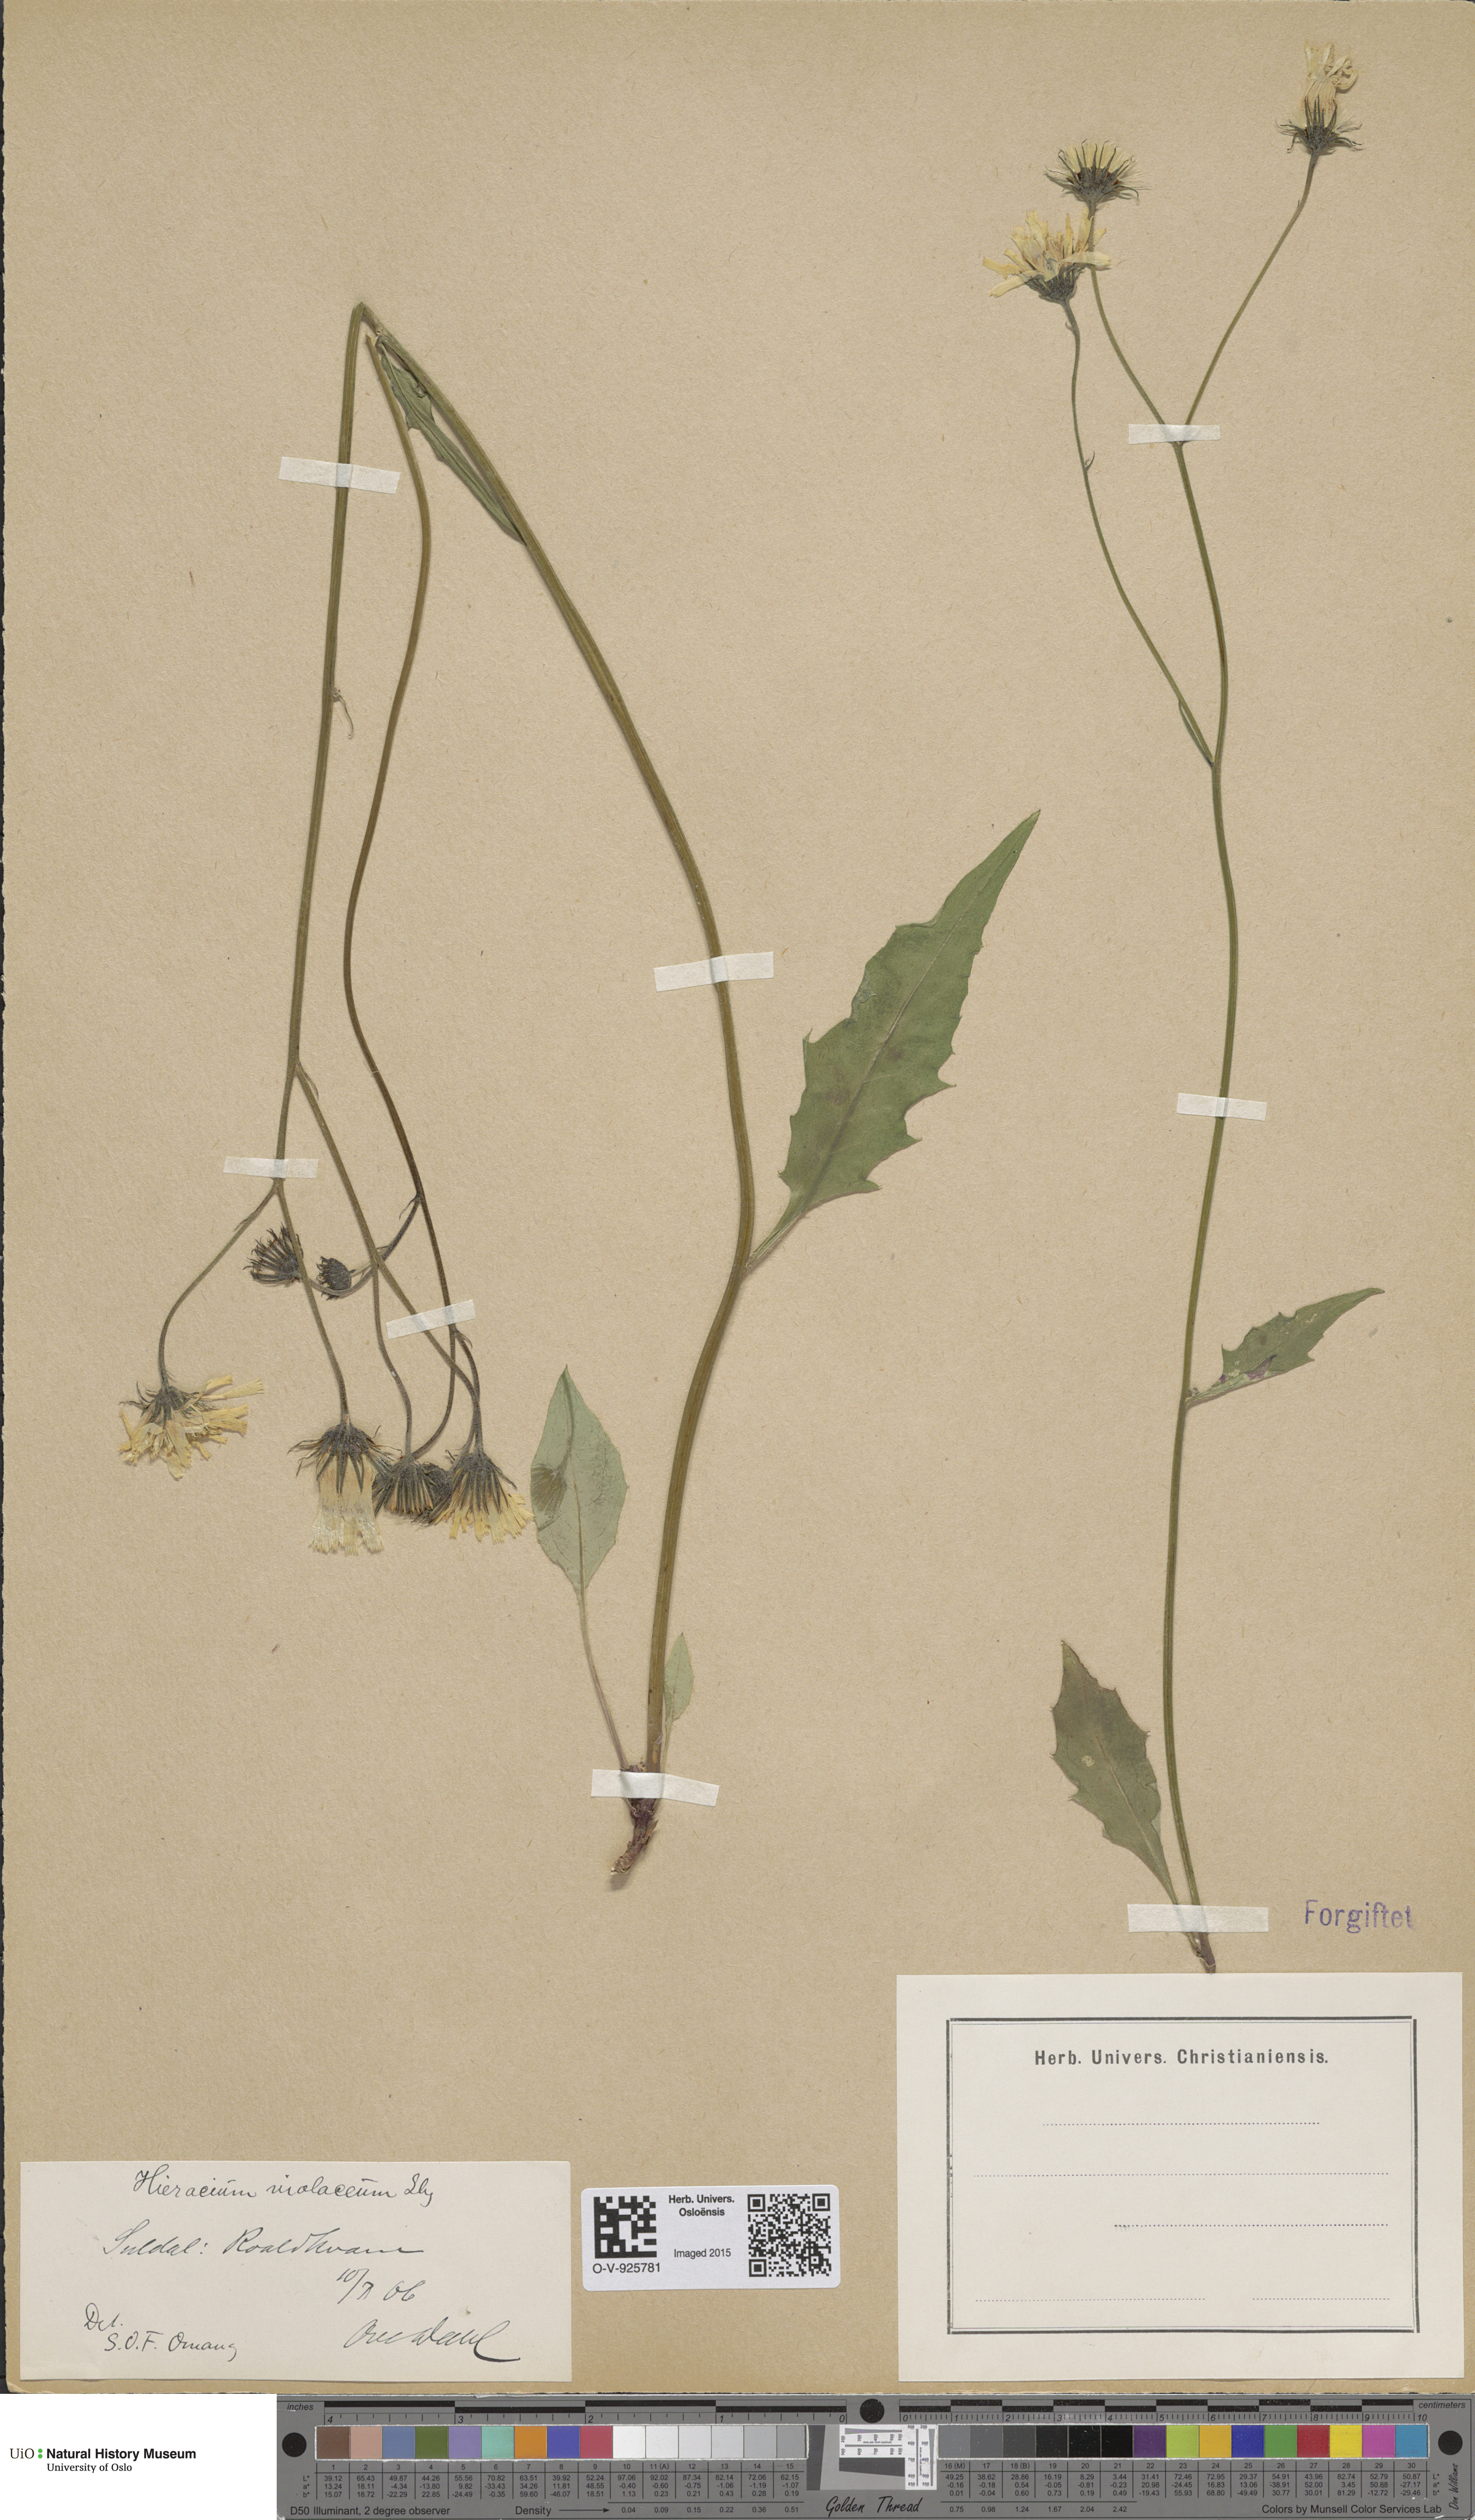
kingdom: Plantae
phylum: Tracheophyta
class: Magnoliopsida
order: Asterales
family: Asteraceae
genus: Hieracium
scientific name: Hieracium
